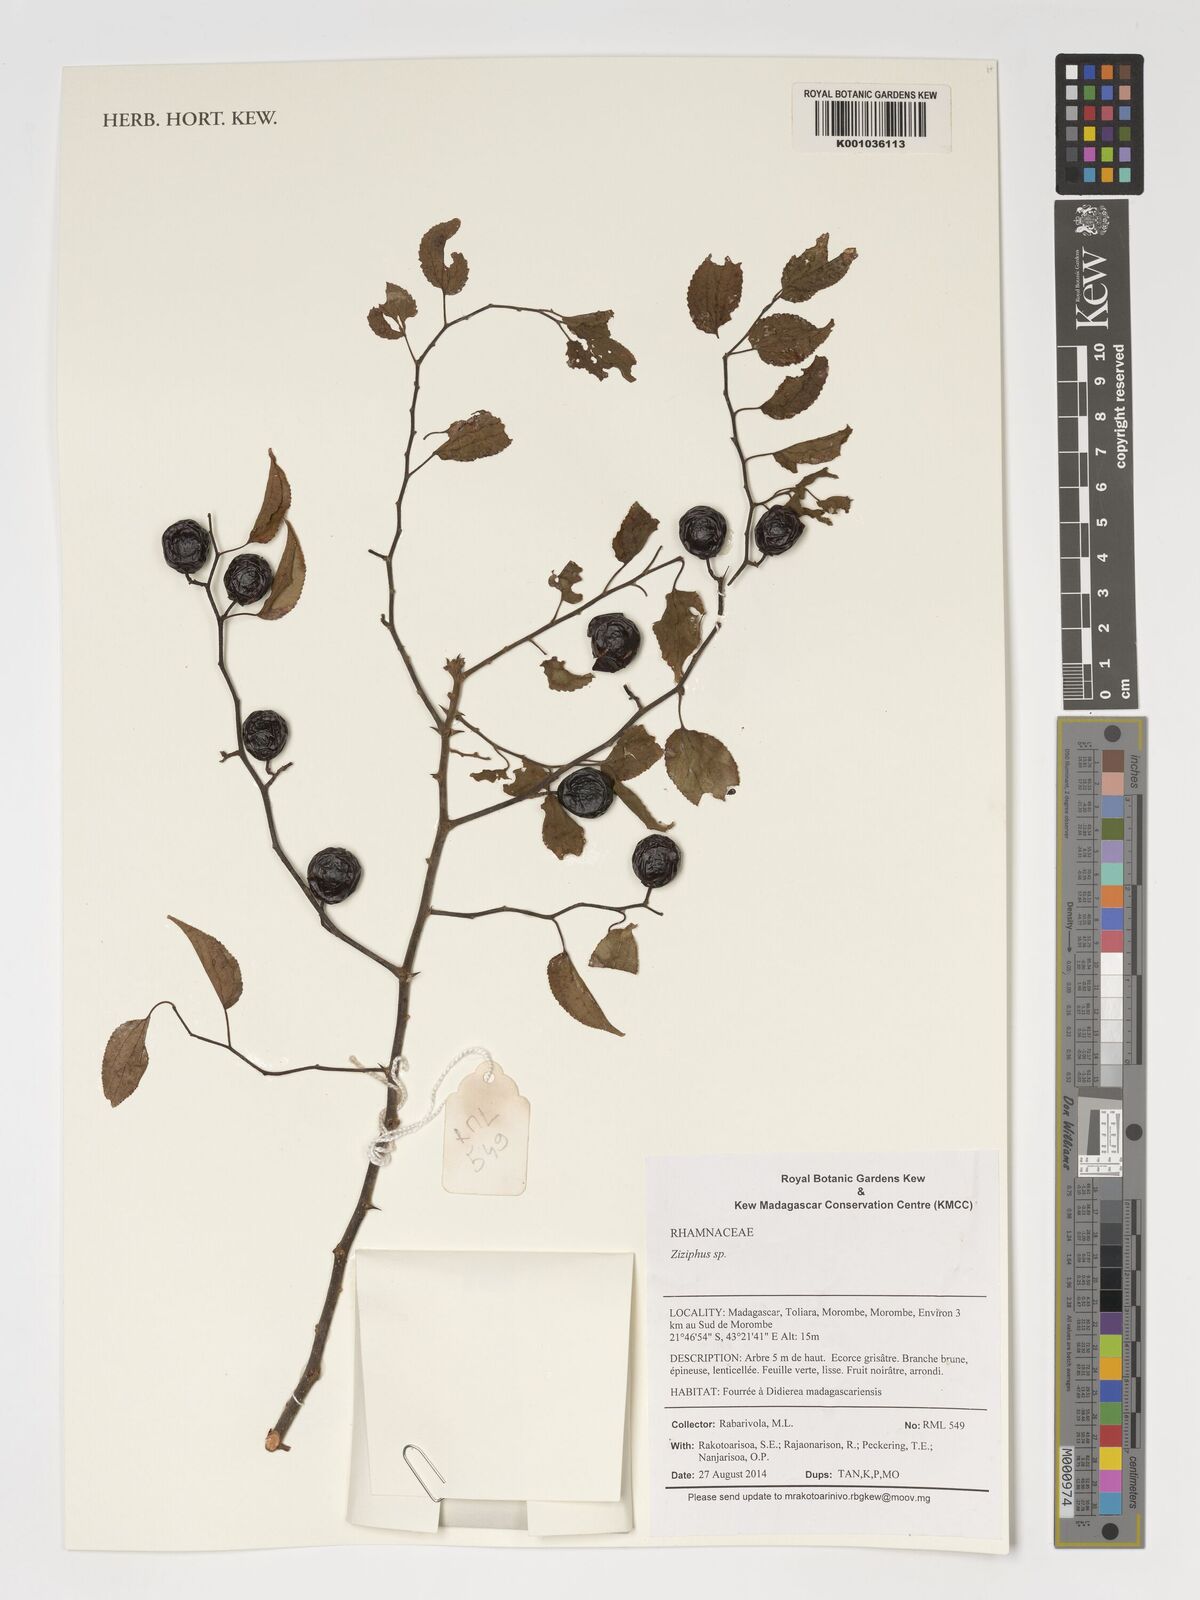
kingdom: Plantae
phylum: Tracheophyta
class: Magnoliopsida
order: Rosales
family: Rhamnaceae
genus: Ziziphus
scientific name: Ziziphus
